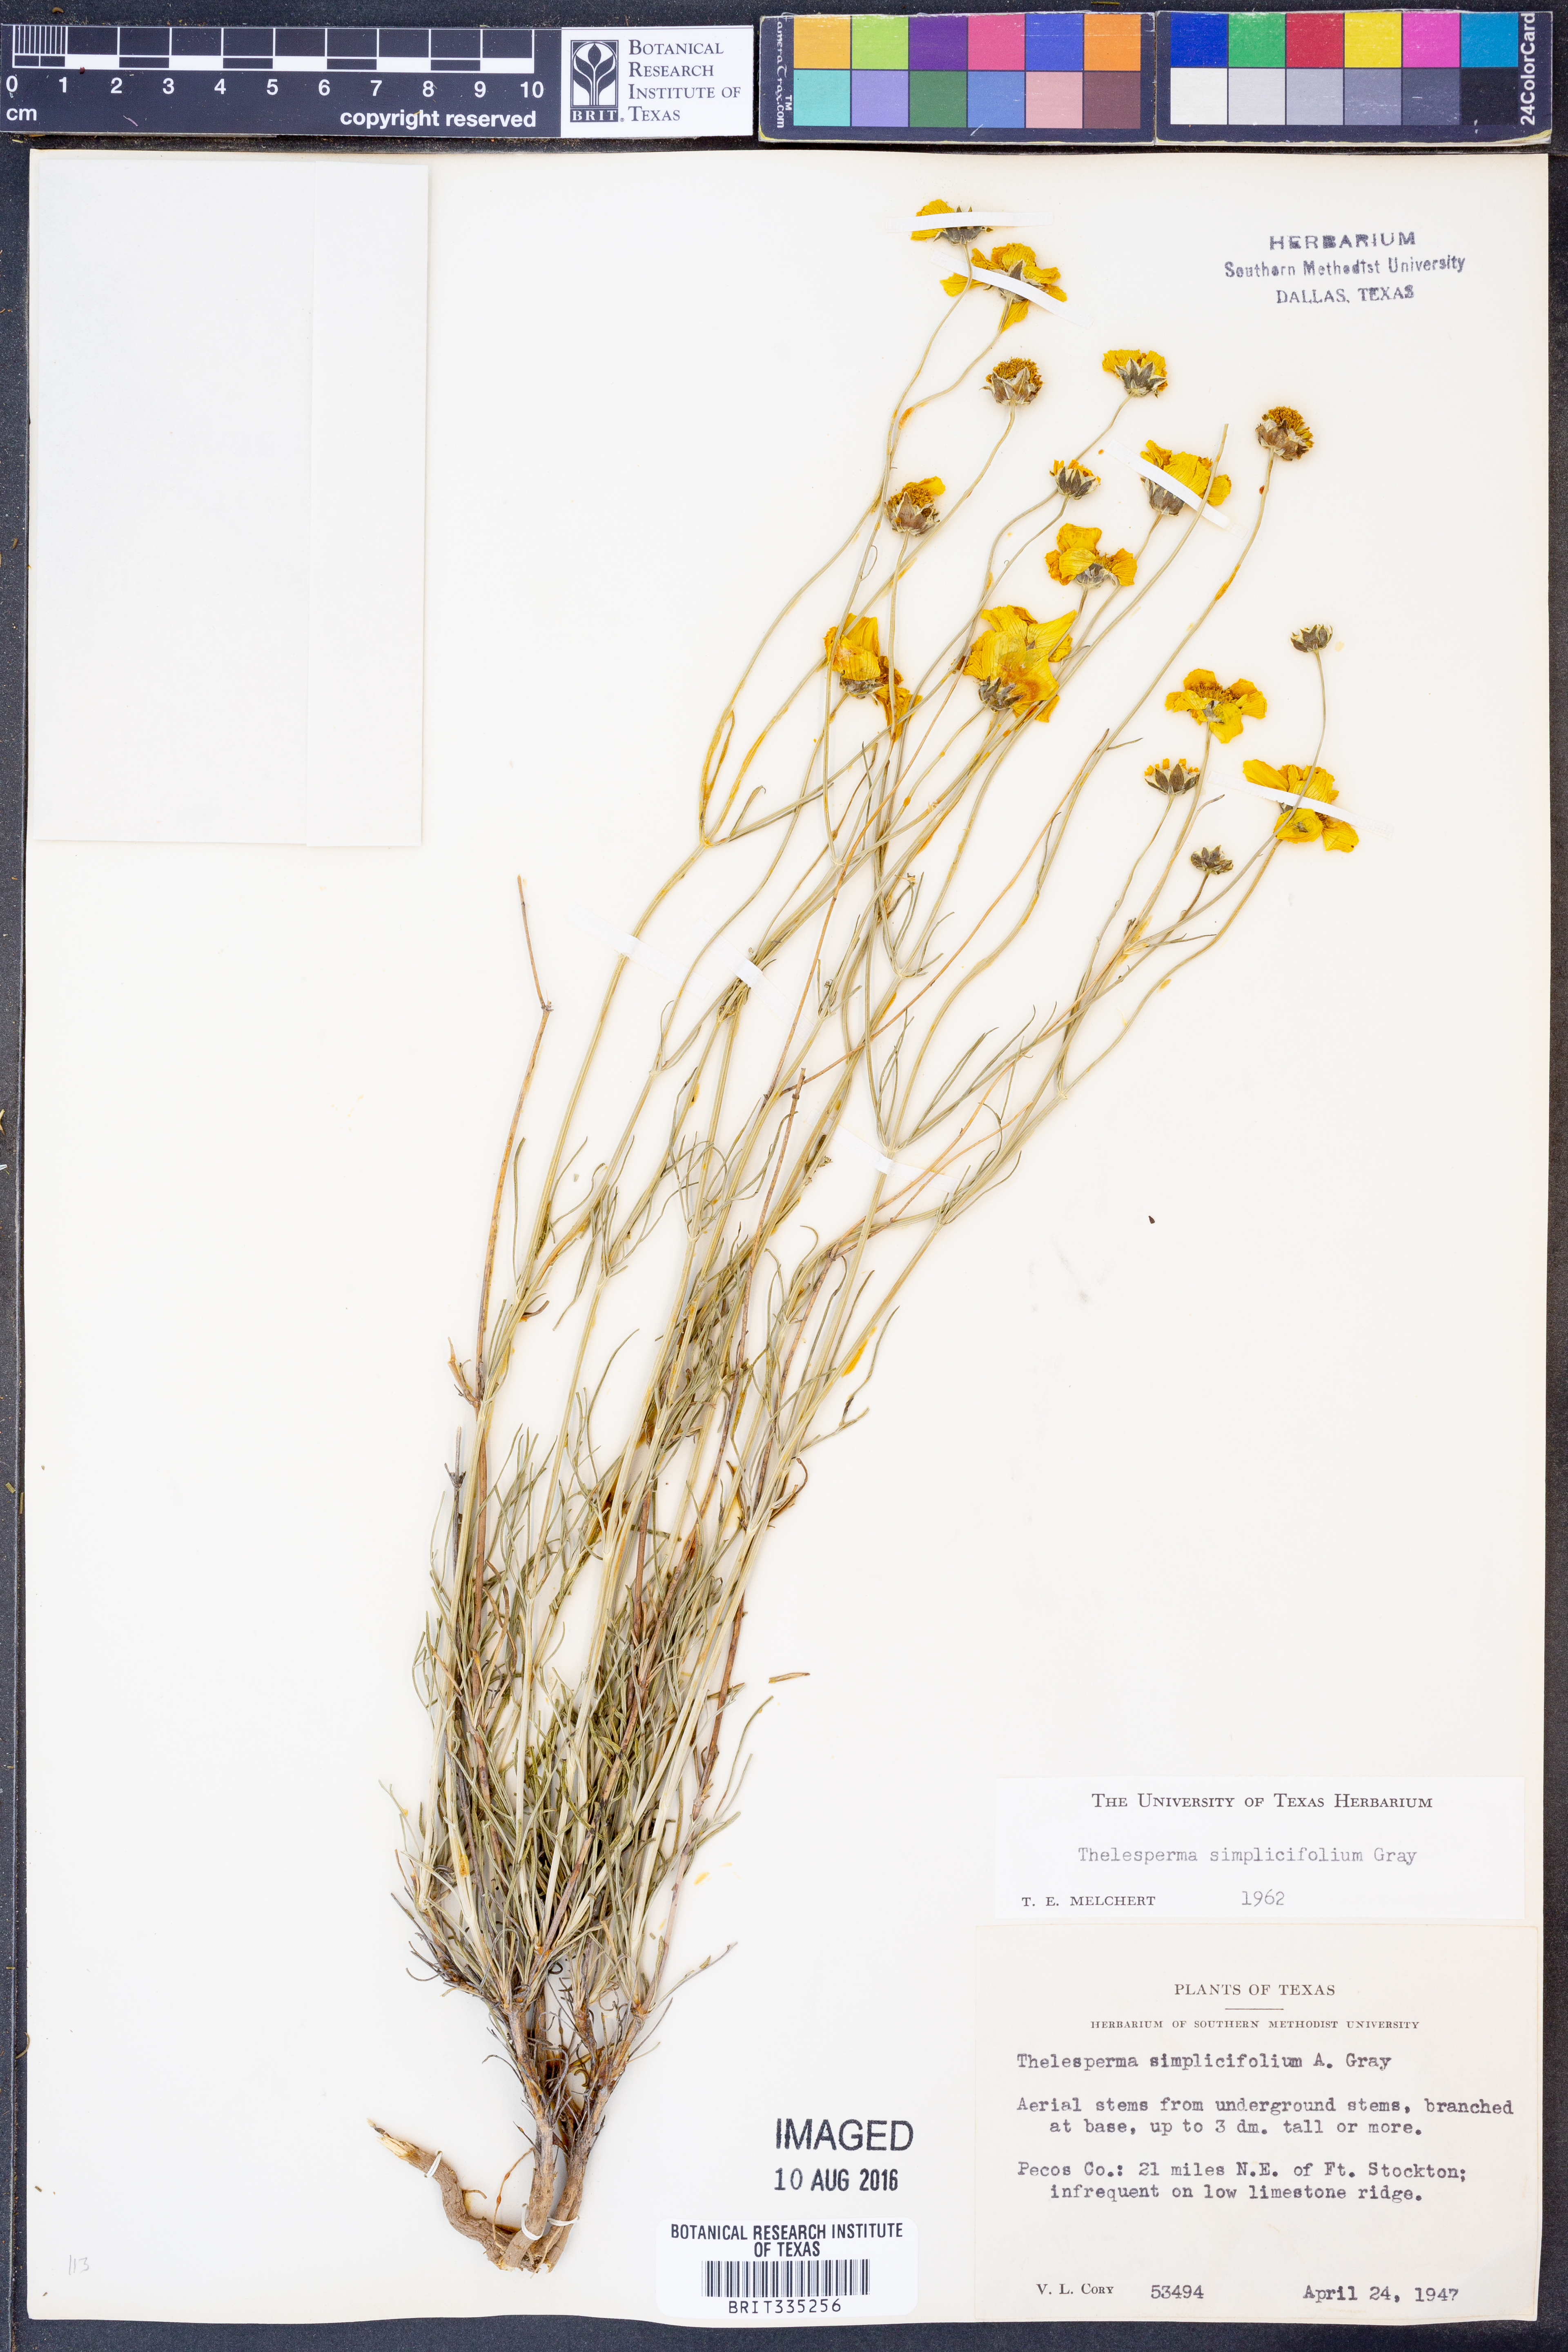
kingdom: Plantae
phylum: Tracheophyta
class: Magnoliopsida
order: Asterales
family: Asteraceae
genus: Thelesperma
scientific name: Thelesperma simplicifolium
